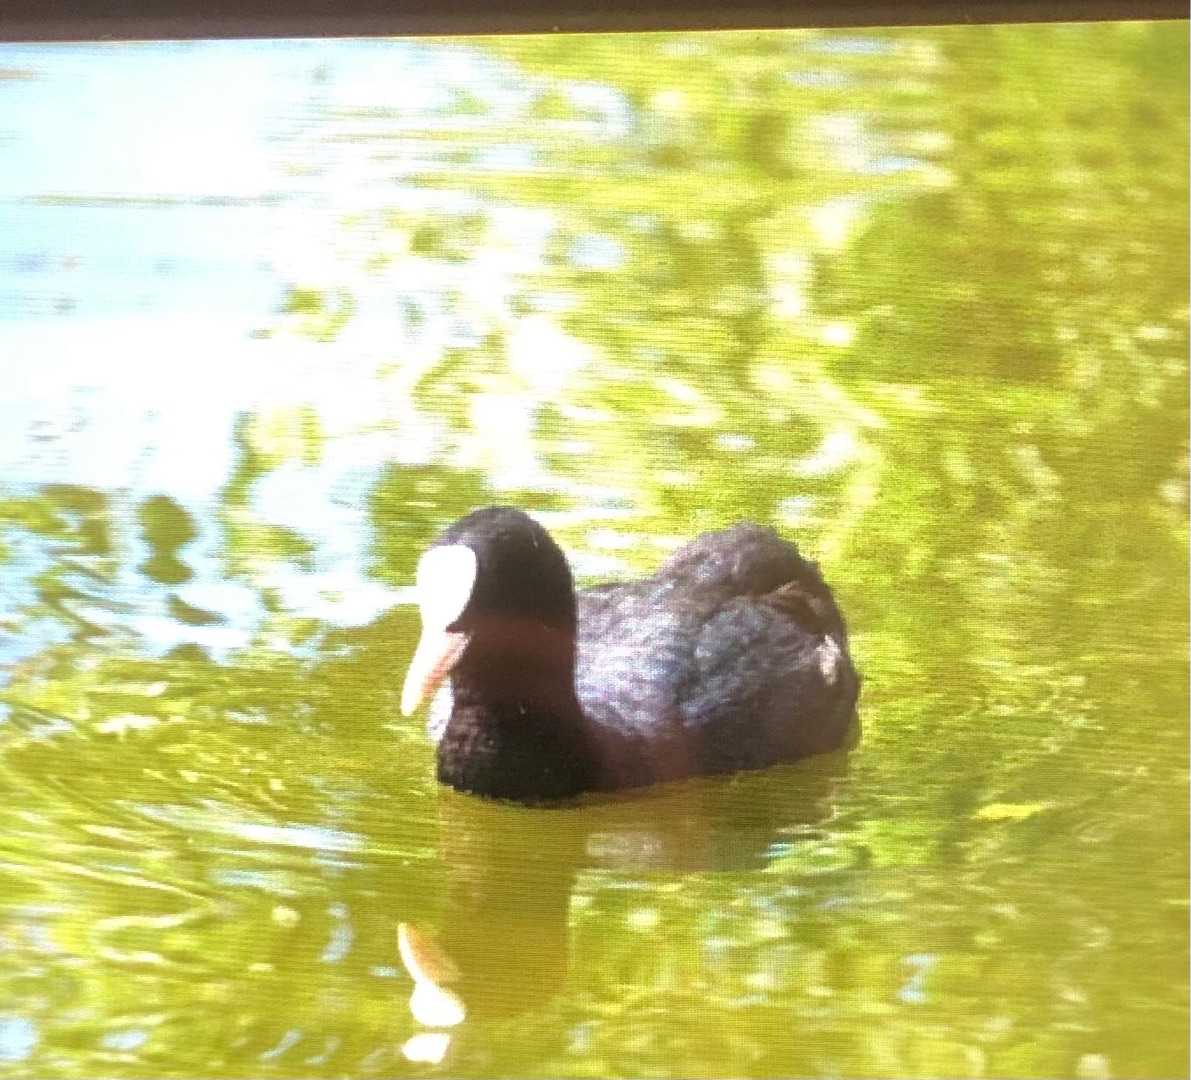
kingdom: Animalia
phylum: Chordata
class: Aves
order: Gruiformes
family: Rallidae
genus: Fulica
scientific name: Fulica atra
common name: Blishøne
